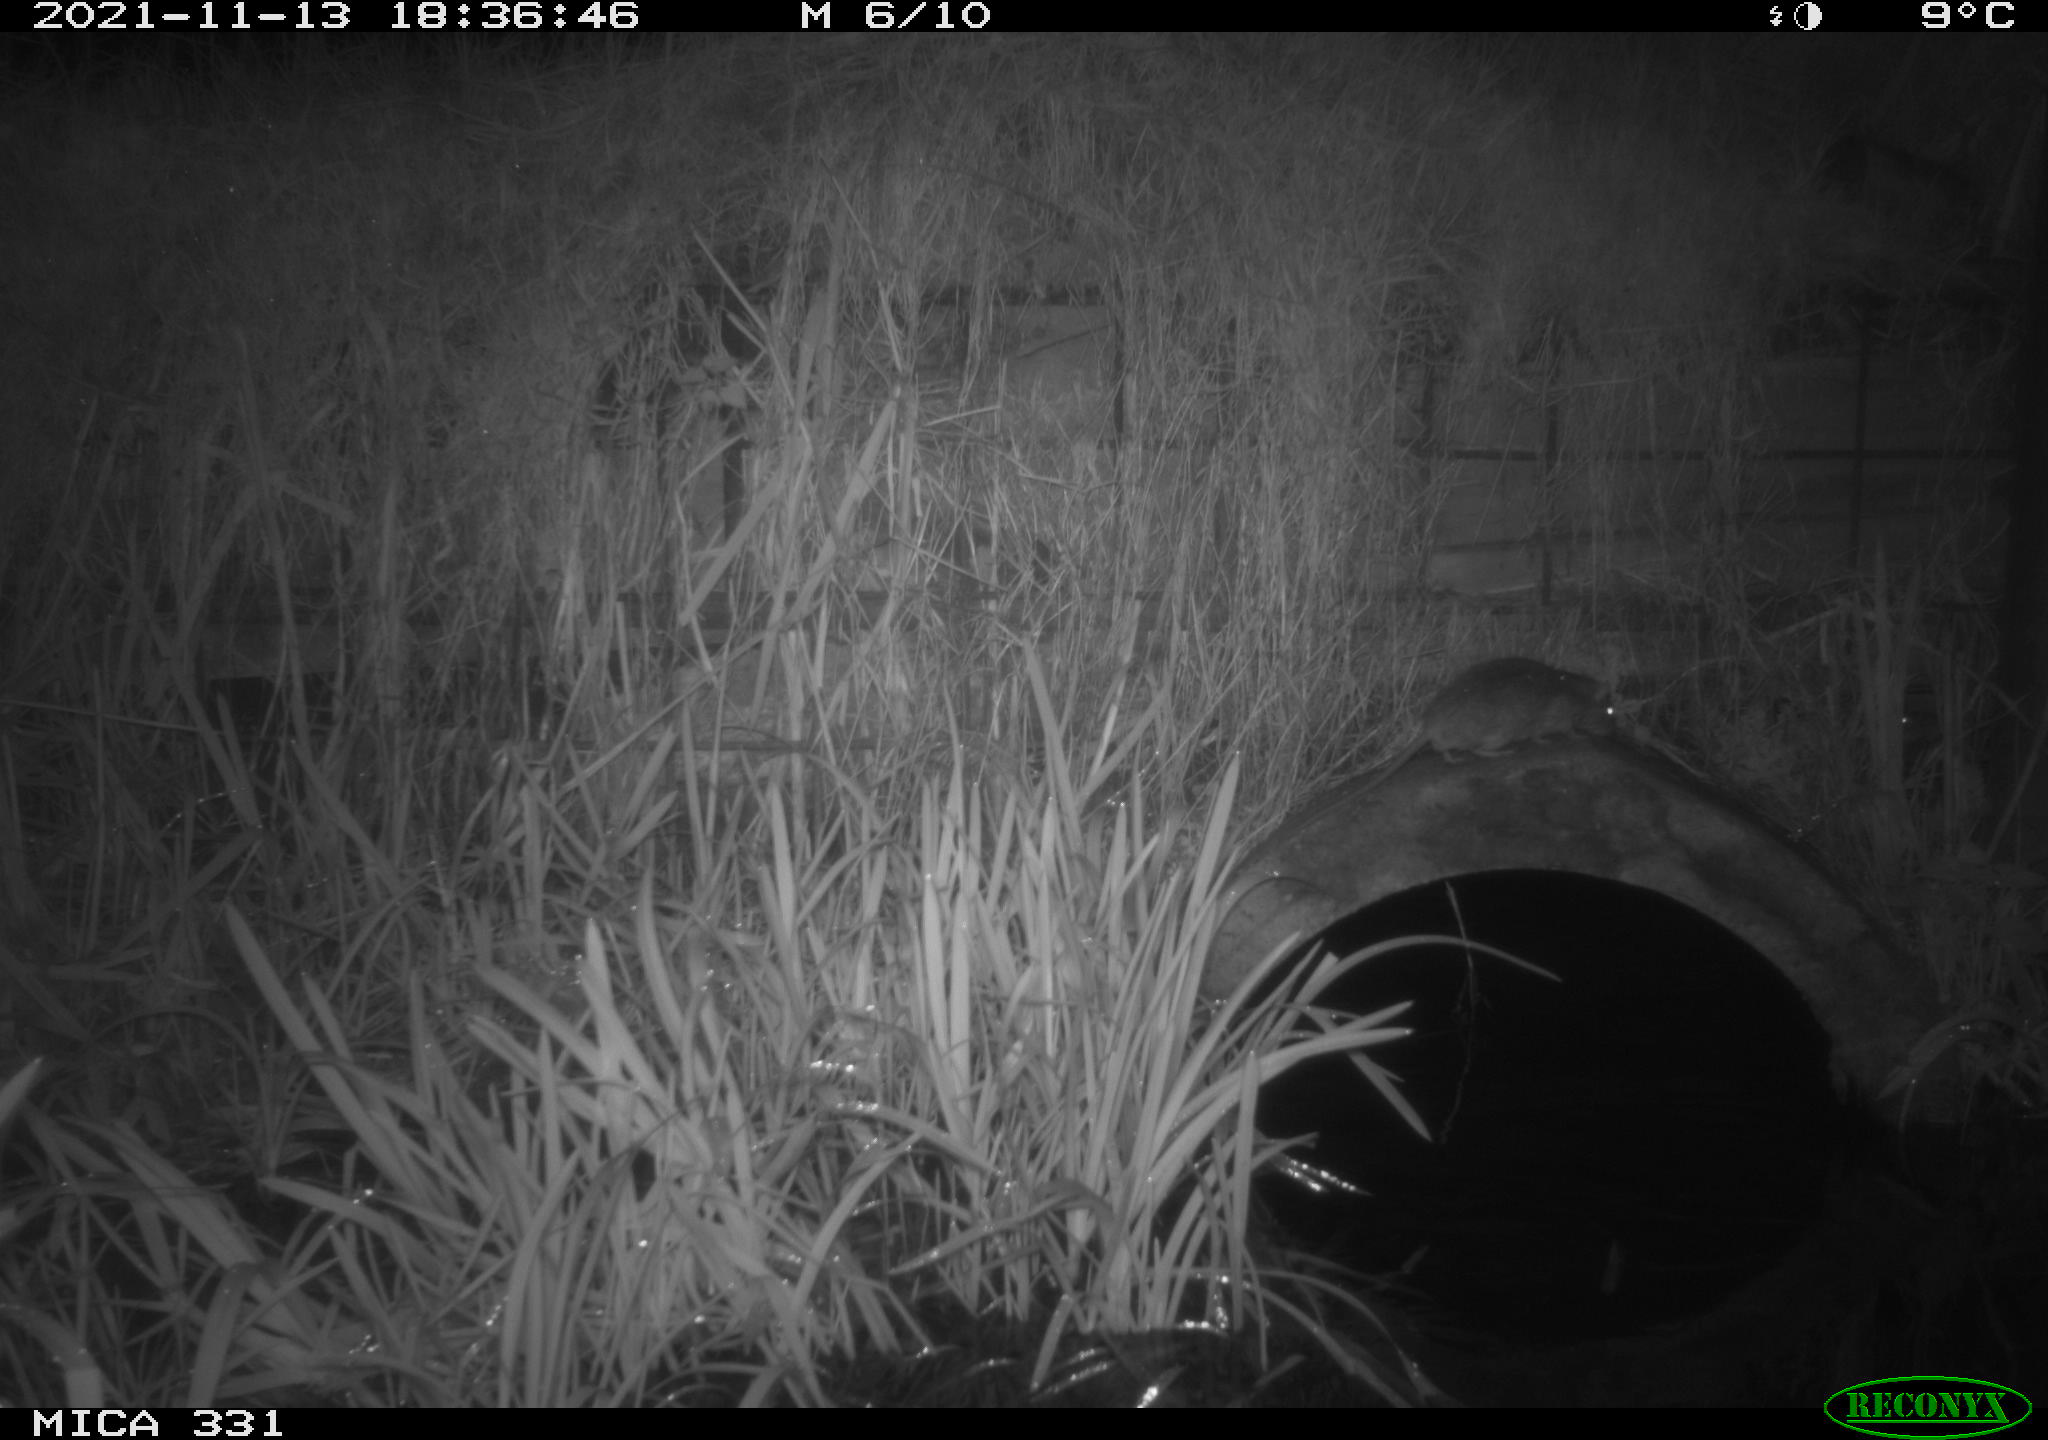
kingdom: Animalia
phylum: Chordata
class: Mammalia
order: Rodentia
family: Muridae
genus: Rattus
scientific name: Rattus norvegicus
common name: Brown rat
